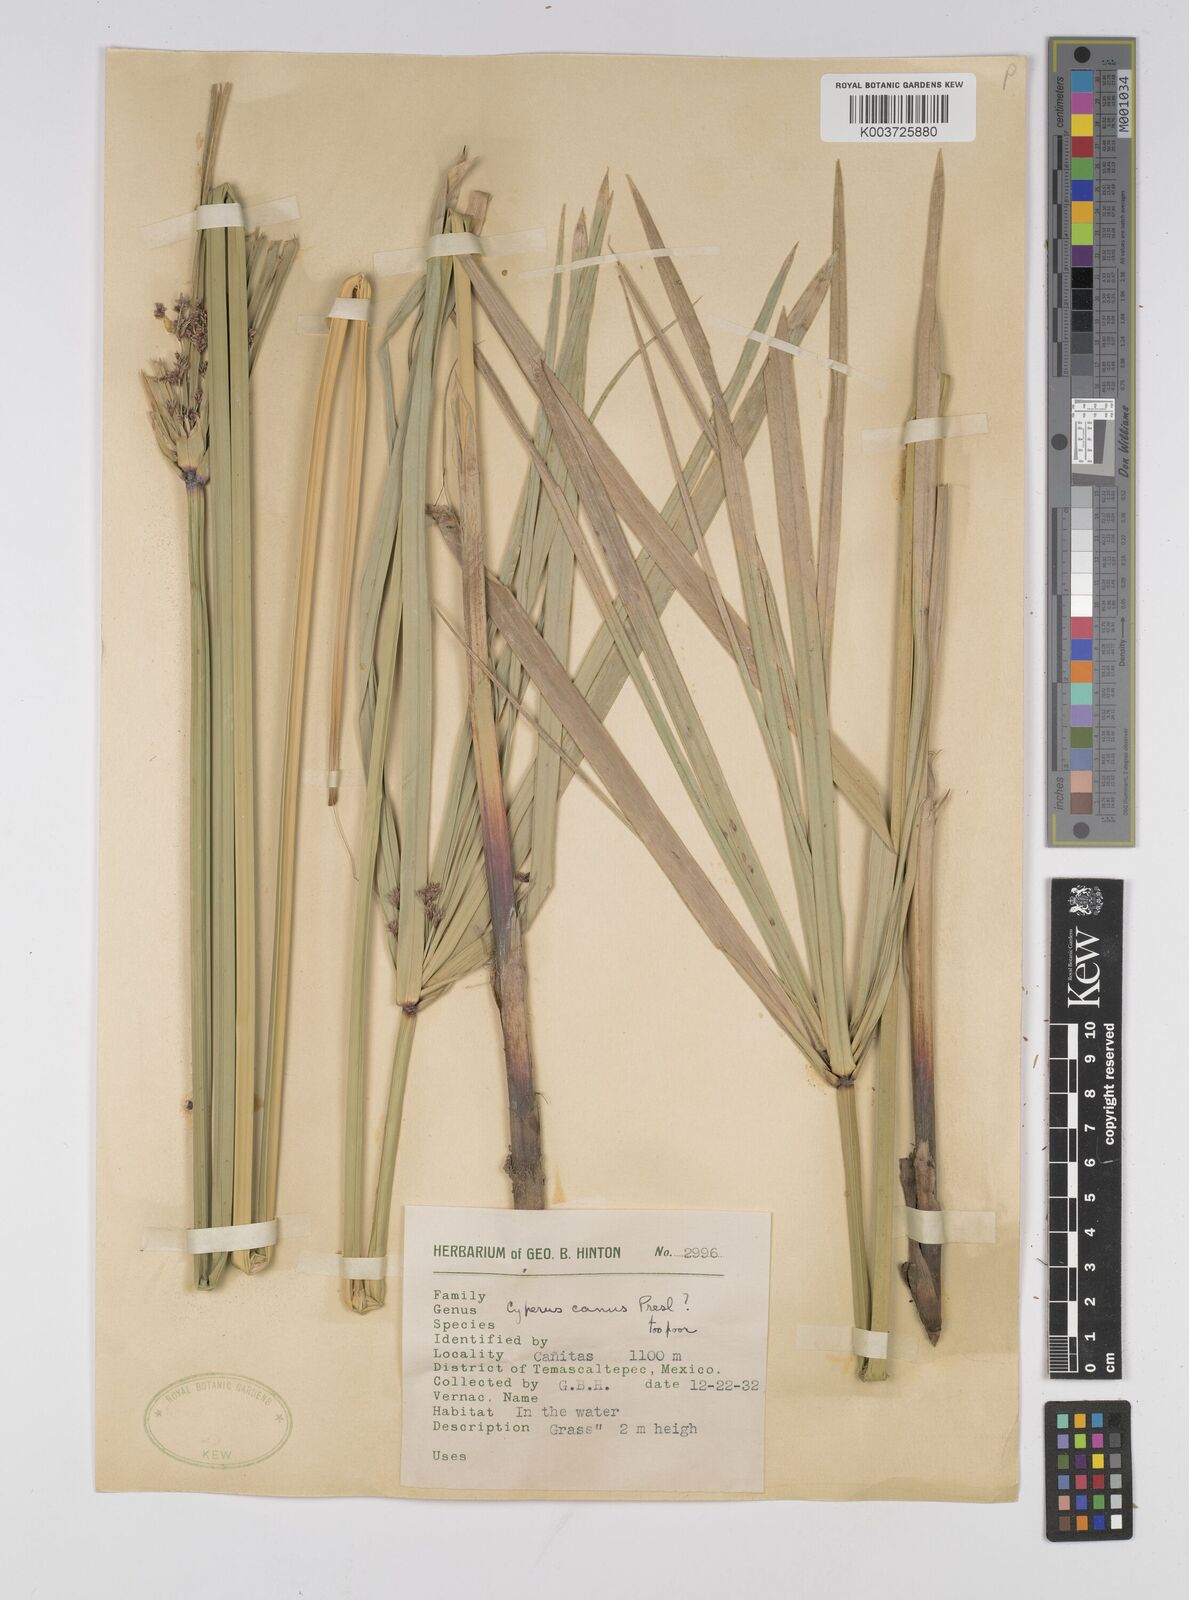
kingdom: Plantae
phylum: Tracheophyta
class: Liliopsida
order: Poales
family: Cyperaceae
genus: Cyperus
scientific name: Cyperus canus
